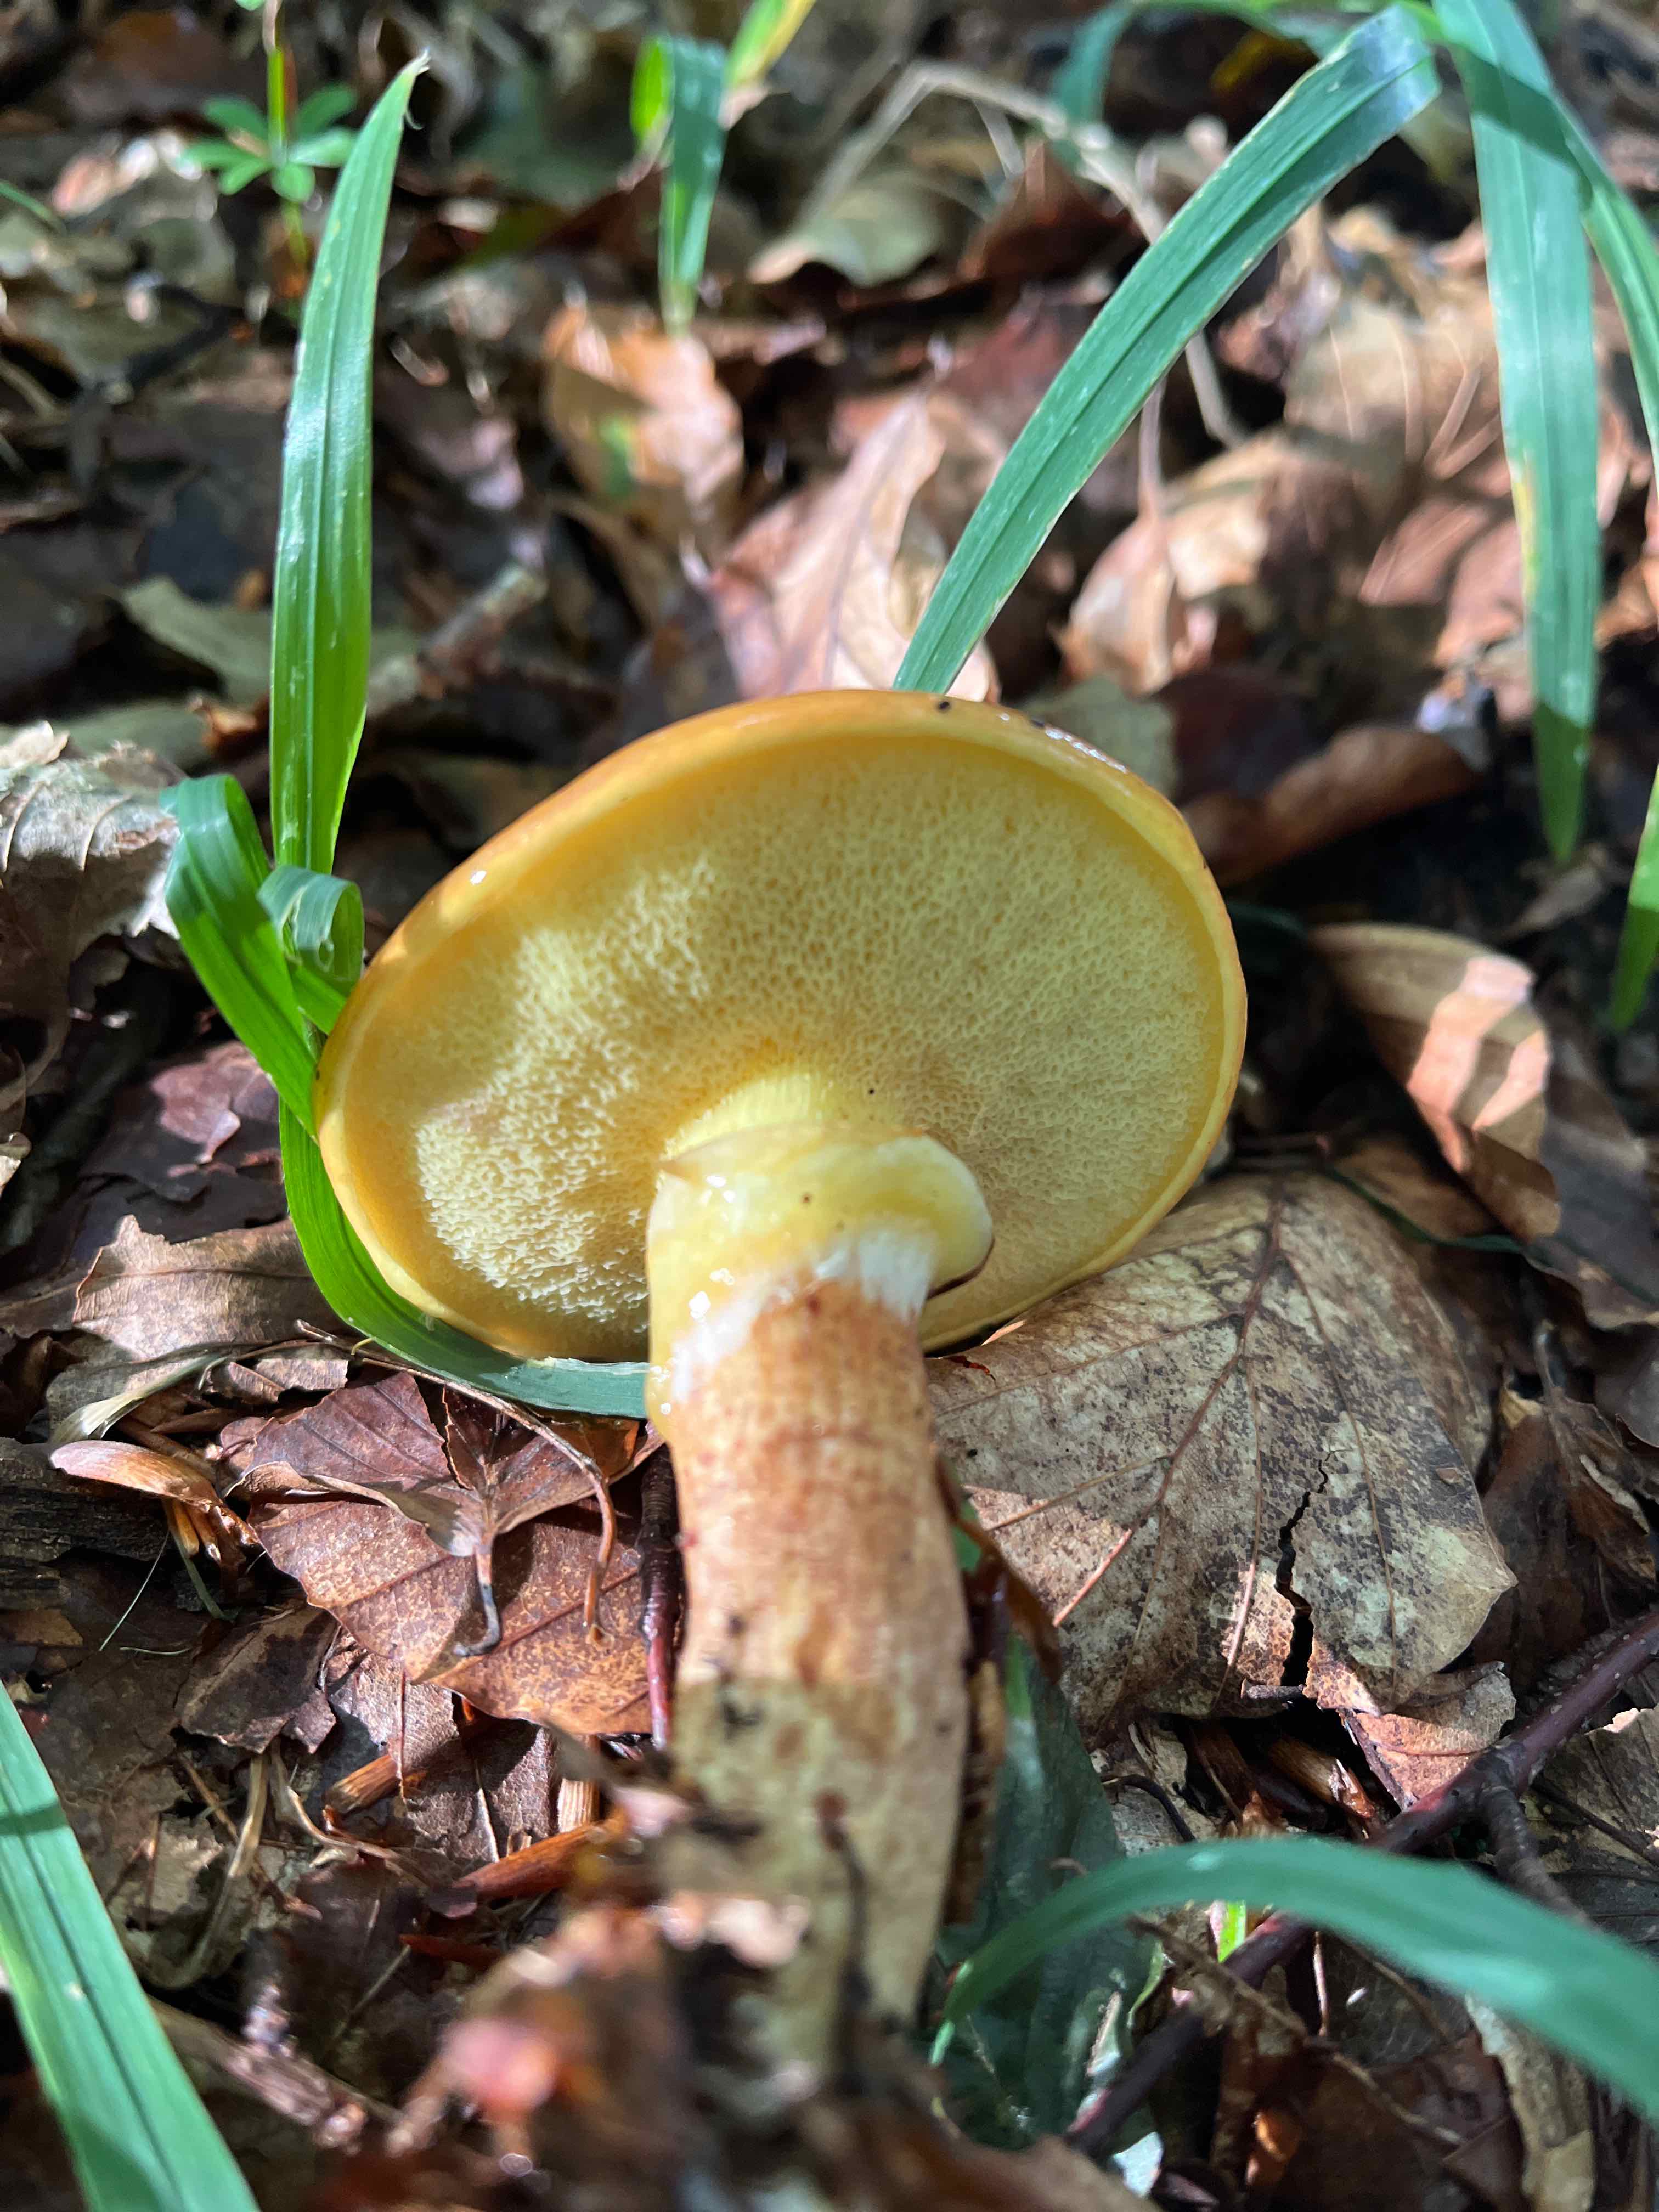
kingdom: Fungi
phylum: Basidiomycota
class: Agaricomycetes
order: Boletales
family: Suillaceae
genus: Suillus
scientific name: Suillus grevillei
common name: lærke-slimrørhat
